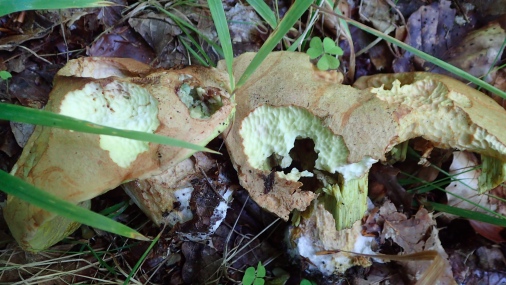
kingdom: Fungi
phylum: Basidiomycota
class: Agaricomycetes
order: Boletales
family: Boletaceae
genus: Butyriboletus
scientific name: Butyriboletus appendiculatus
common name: tenstokket rørhat
